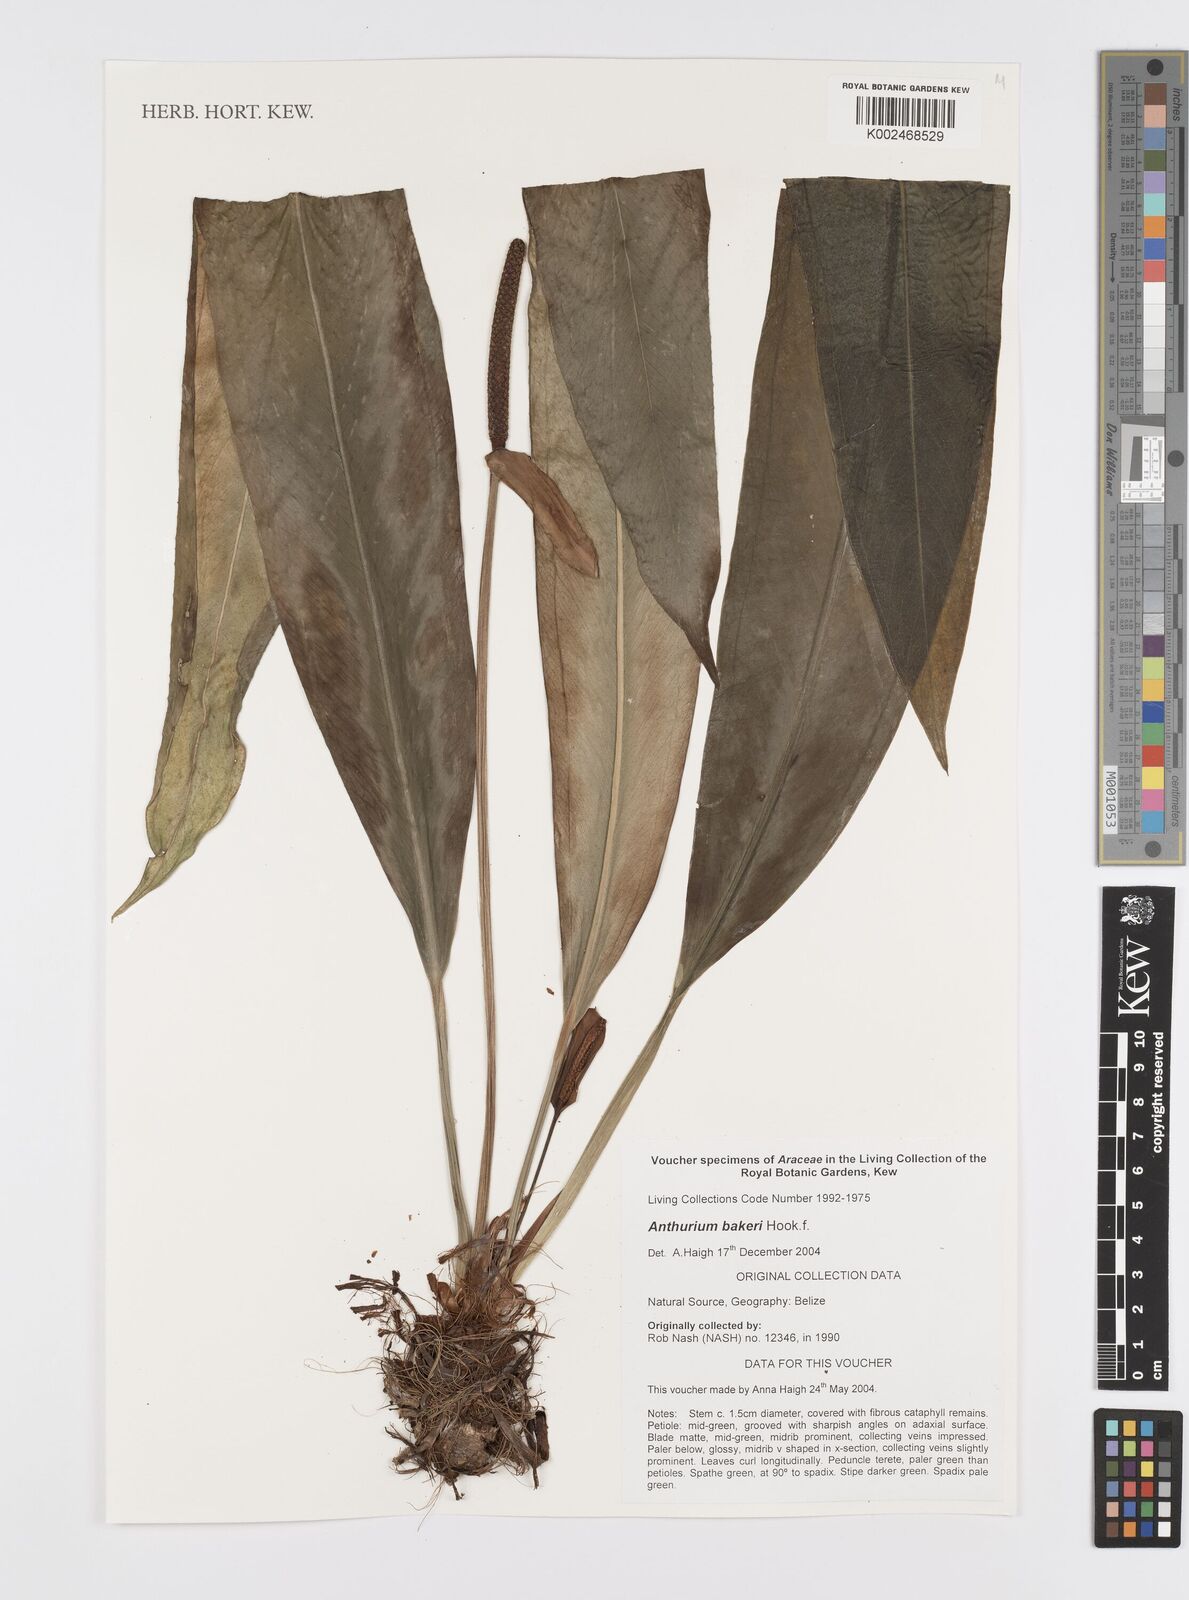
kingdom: Plantae
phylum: Tracheophyta
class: Liliopsida
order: Alismatales
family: Araceae
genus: Anthurium
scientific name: Anthurium bakeri
